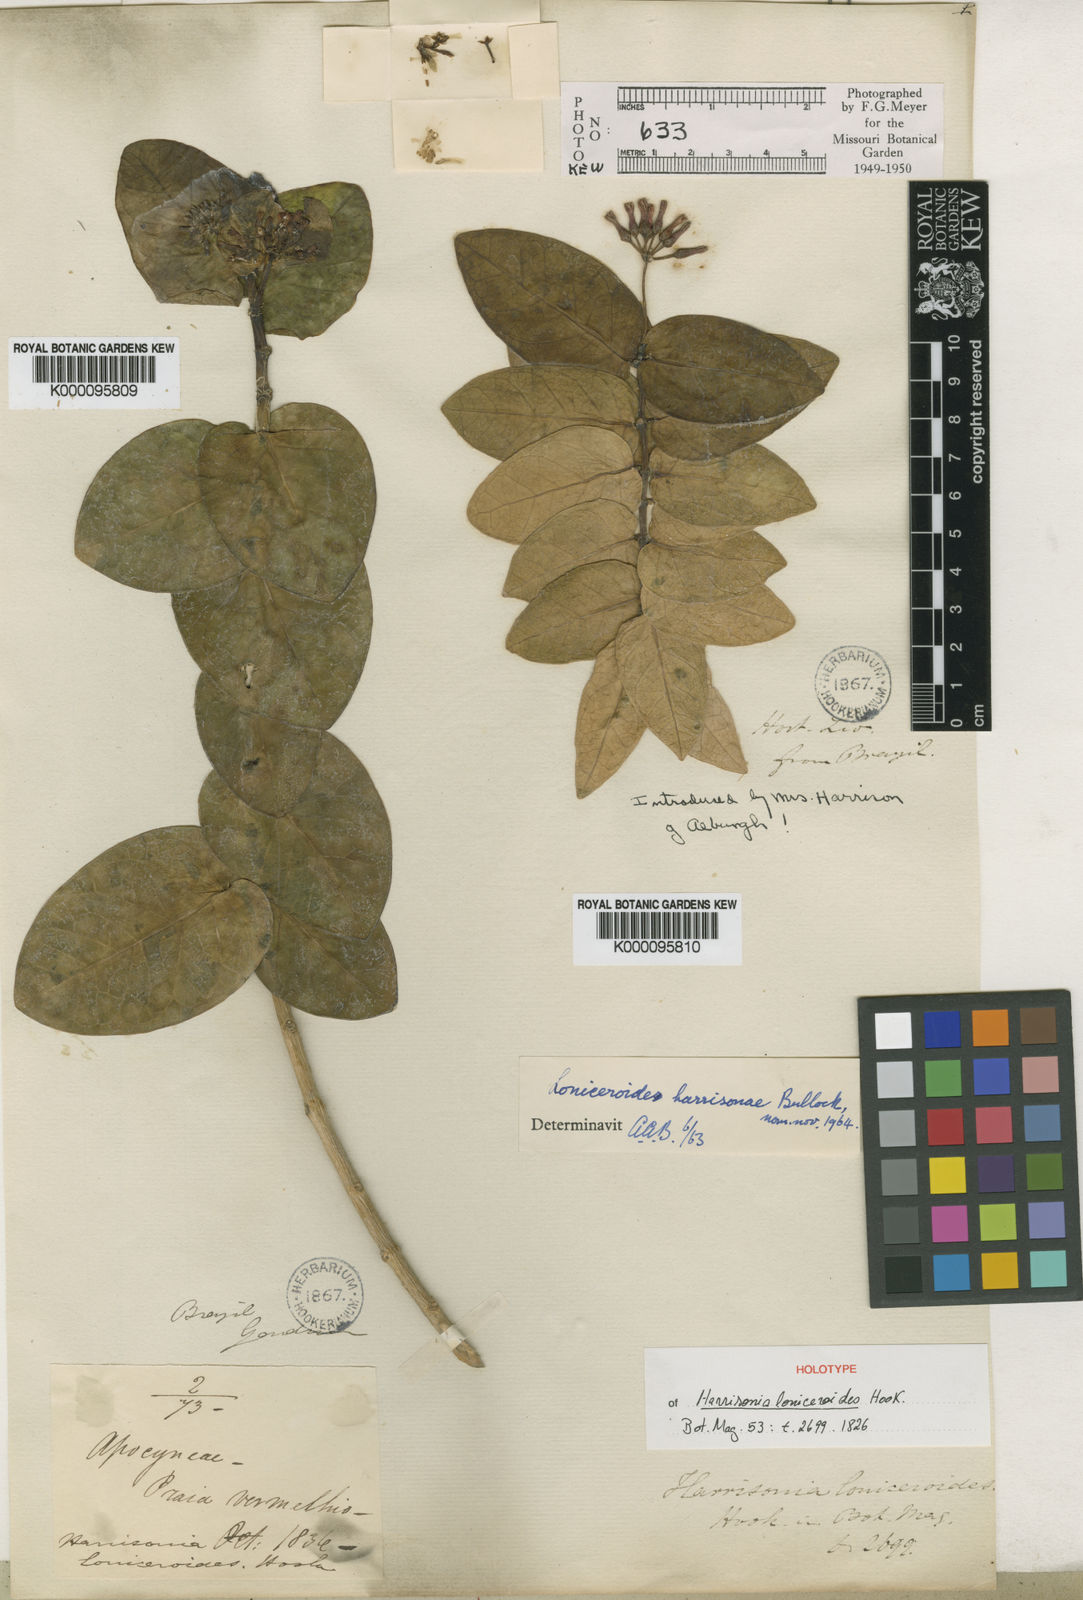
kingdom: Plantae
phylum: Tracheophyta
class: Magnoliopsida
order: Gentianales
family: Apocynaceae
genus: Marsdenia
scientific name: Marsdenia
